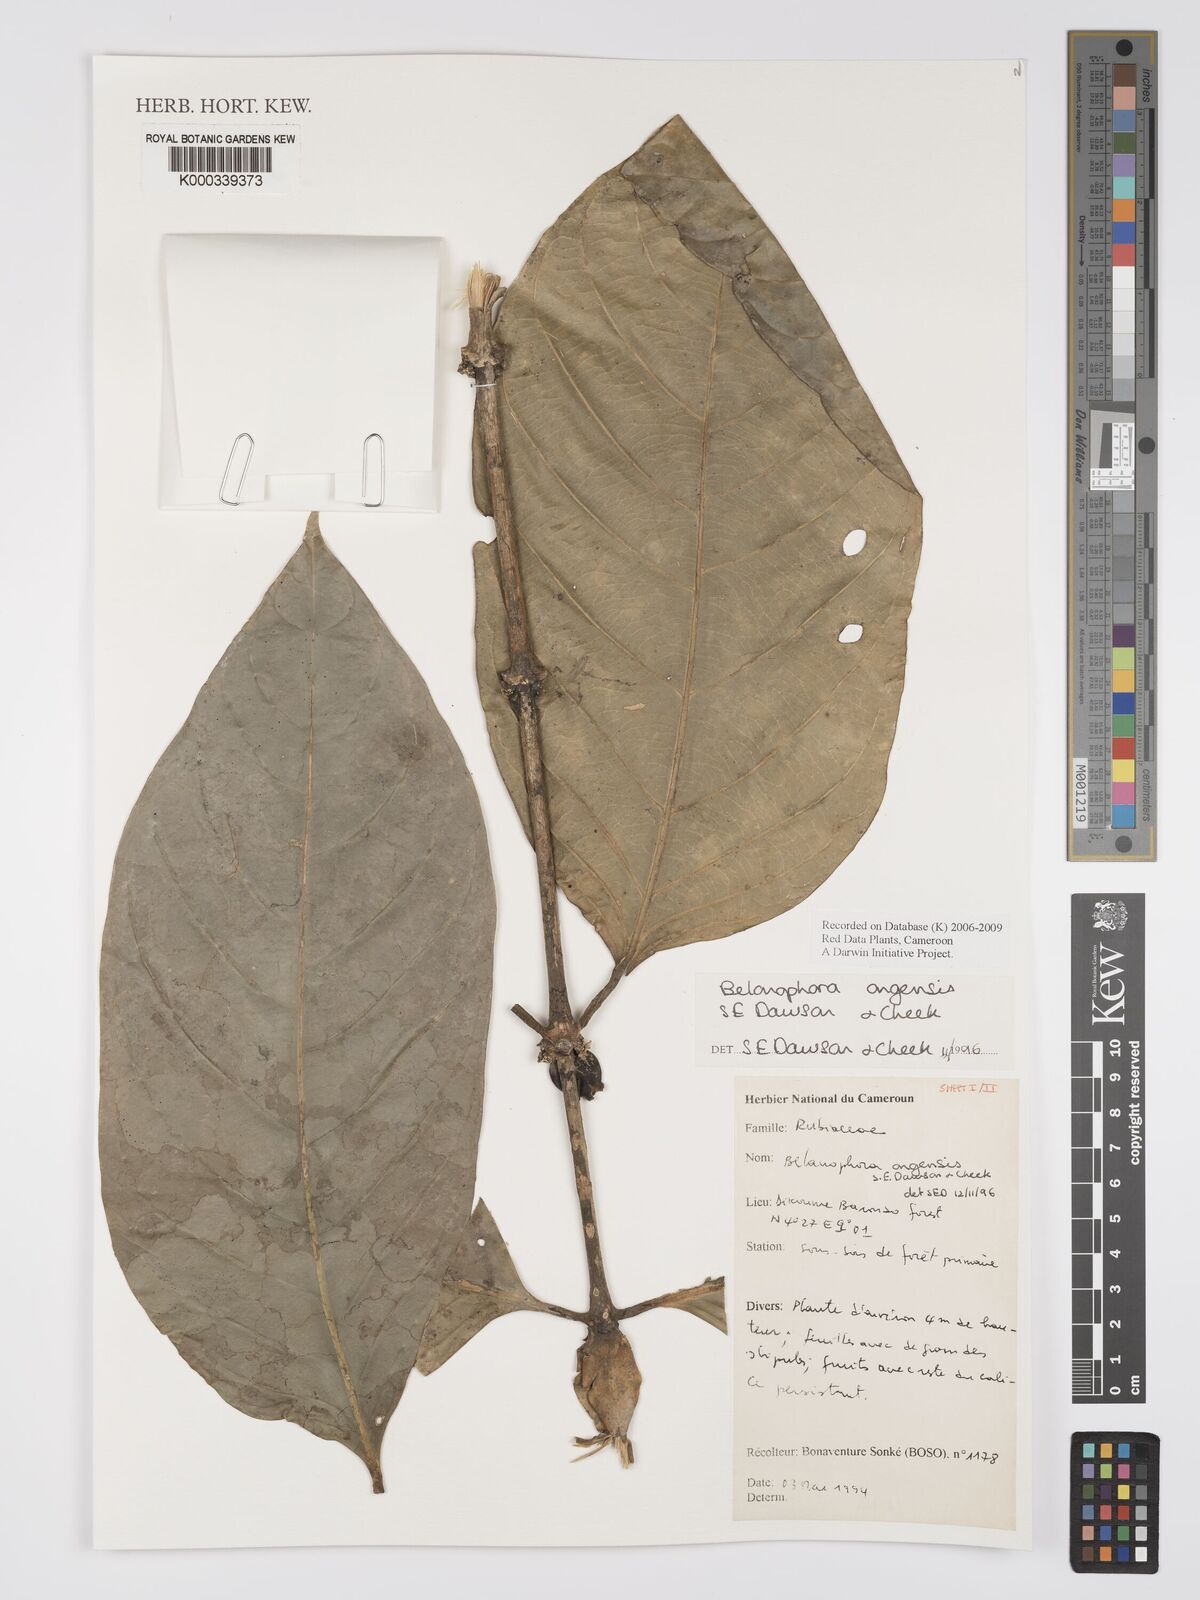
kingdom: Plantae
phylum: Tracheophyta
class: Magnoliopsida
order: Gentianales
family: Rubiaceae
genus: Belonophora
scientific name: Belonophora ongensis
